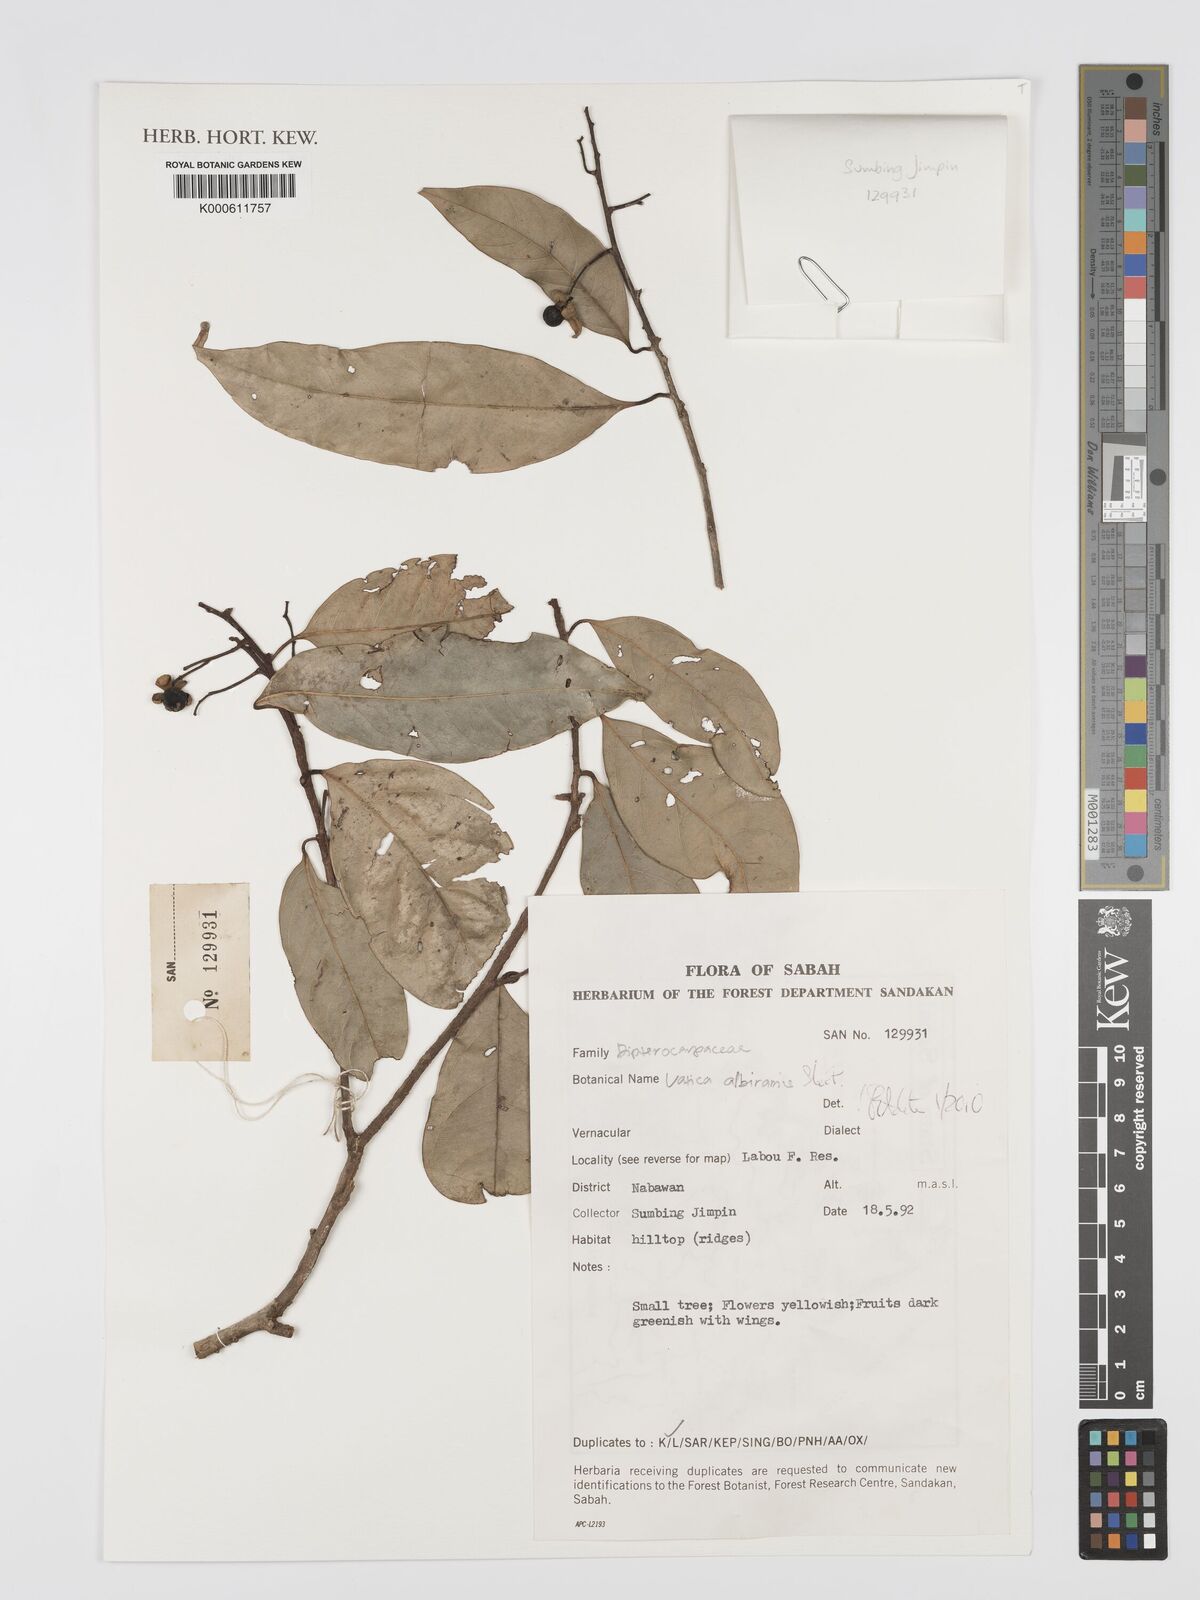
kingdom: Plantae
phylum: Tracheophyta
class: Magnoliopsida
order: Malvales
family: Dipterocarpaceae
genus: Vatica
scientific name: Vatica albiramis
